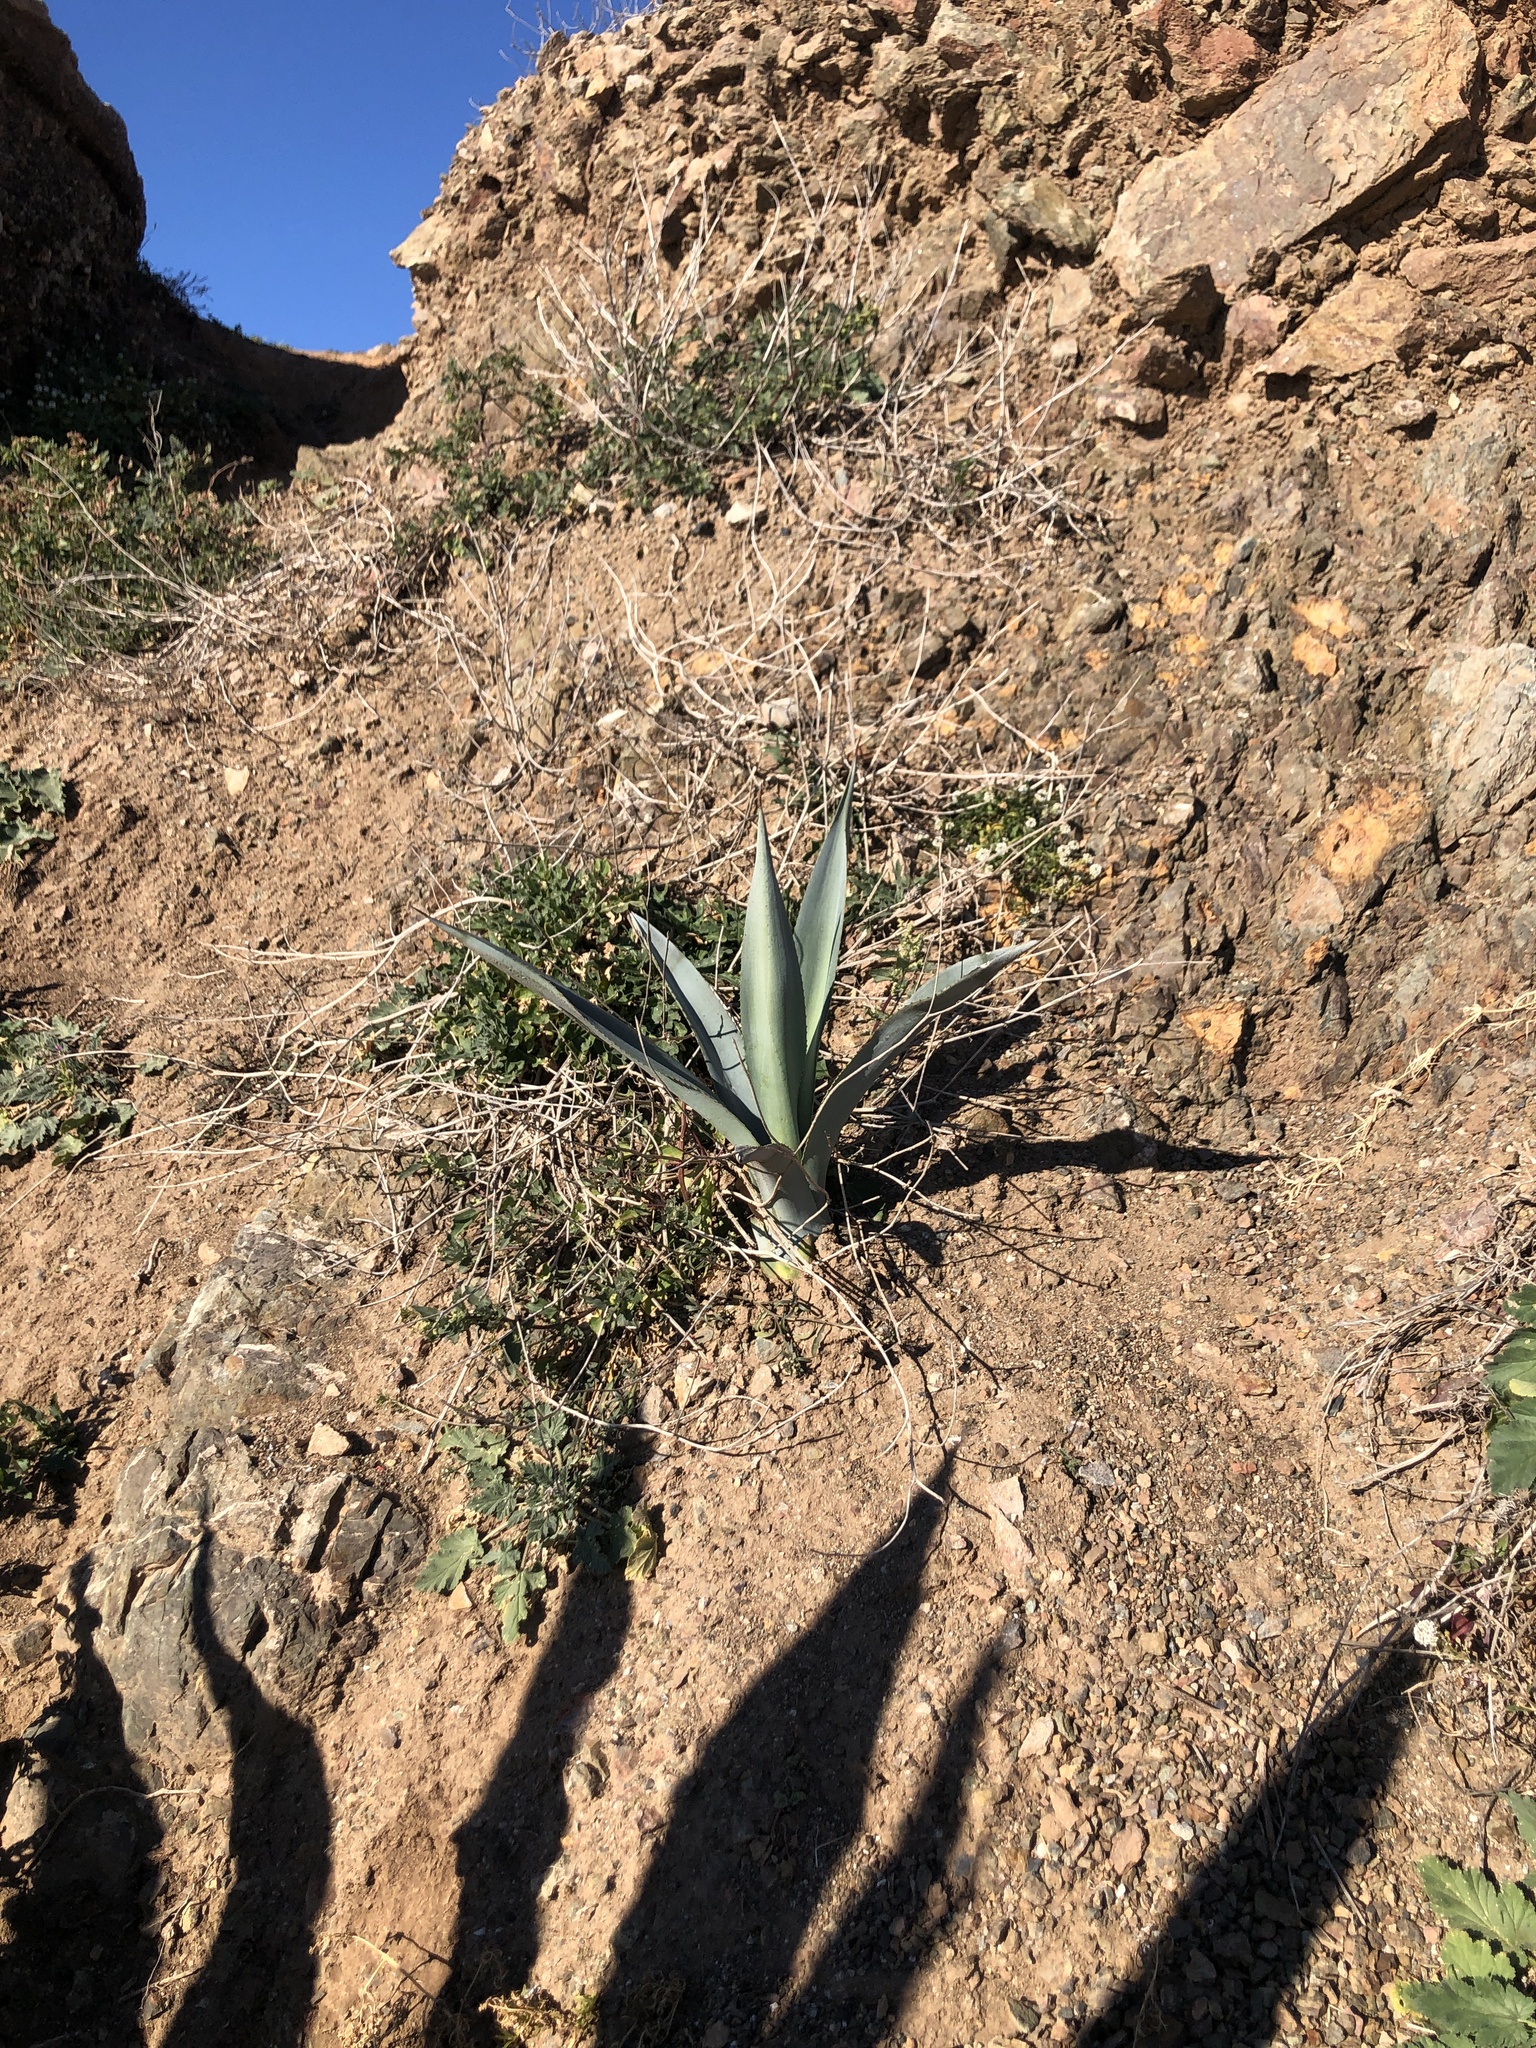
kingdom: Plantae
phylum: Tracheophyta
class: Liliopsida
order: Asparagales
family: Asparagaceae
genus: Agave
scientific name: Agave americana
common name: Centuryplant
